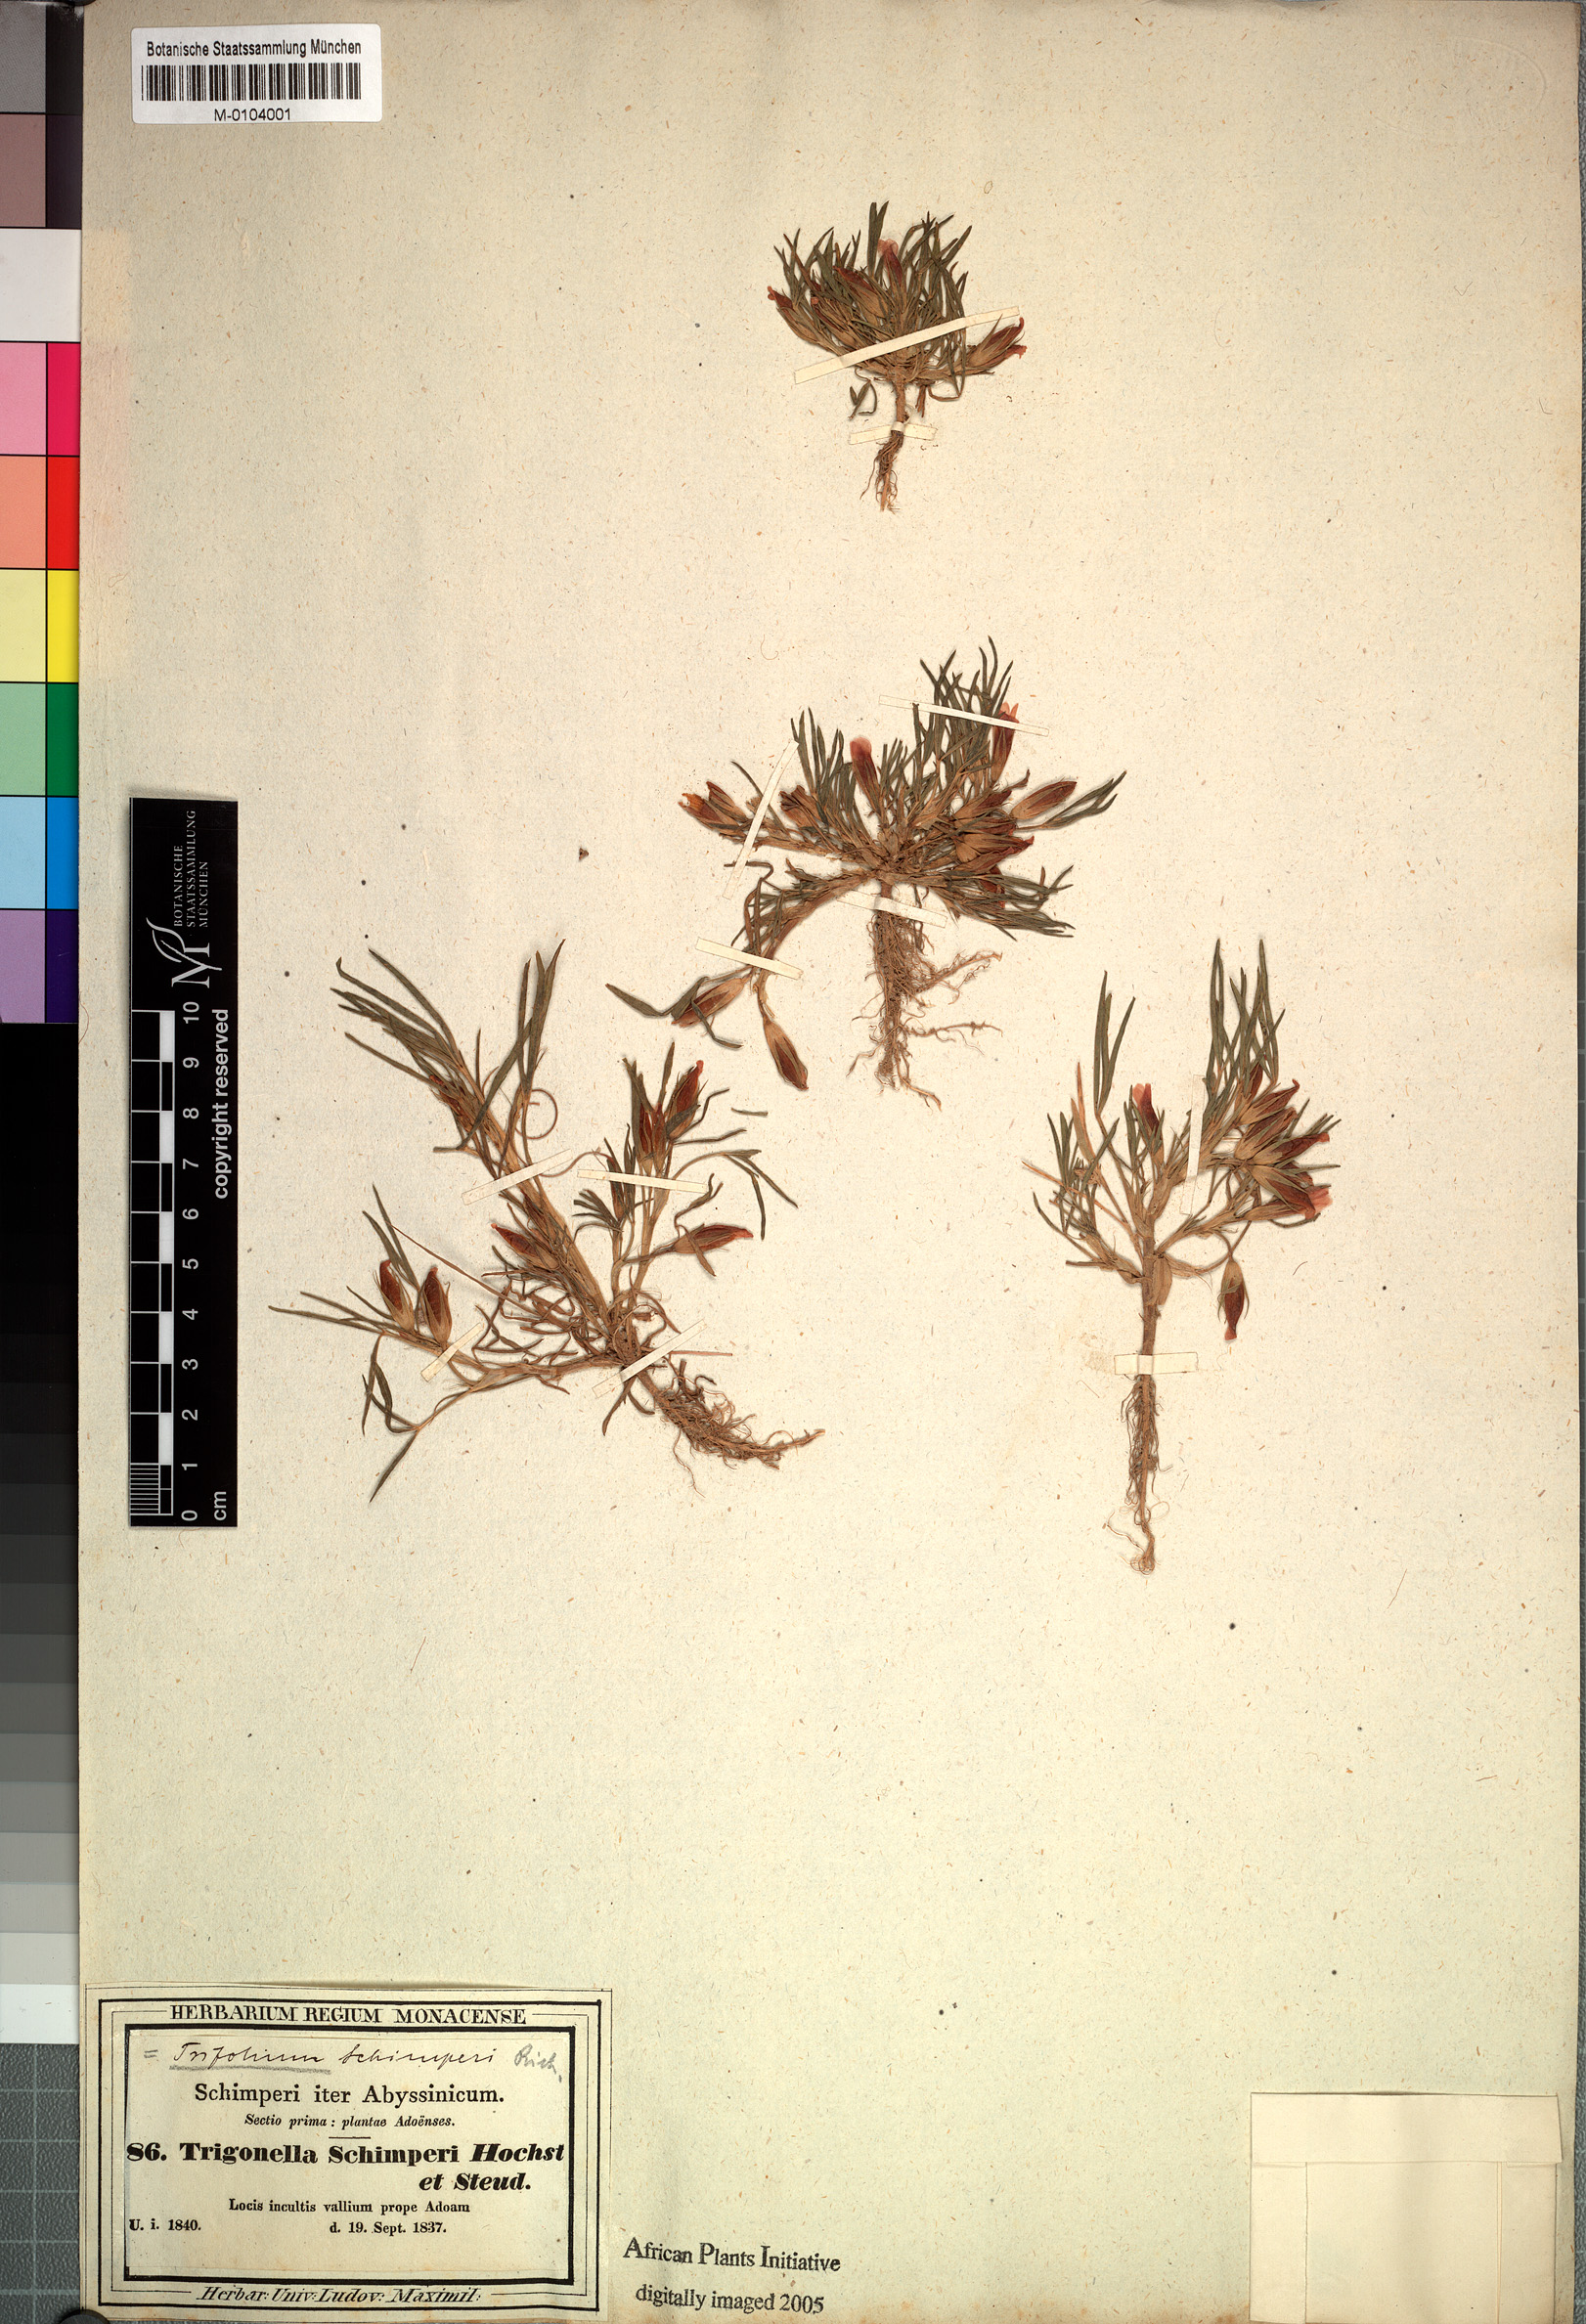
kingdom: Plantae
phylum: Tracheophyta
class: Magnoliopsida
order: Fabales
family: Fabaceae
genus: Trifolium
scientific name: Trifolium schimperi
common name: Schimper's clover
